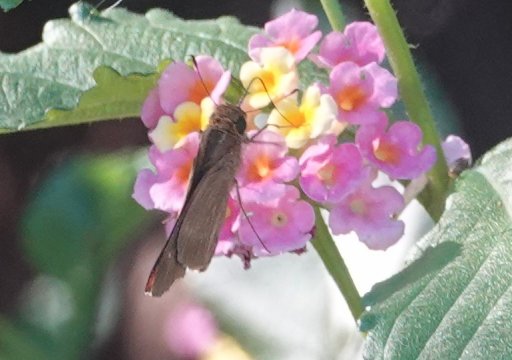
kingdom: Animalia
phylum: Arthropoda
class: Insecta
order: Lepidoptera
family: Hesperiidae
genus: Panoquina
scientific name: Panoquina ocola
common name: Ocola Skipper
